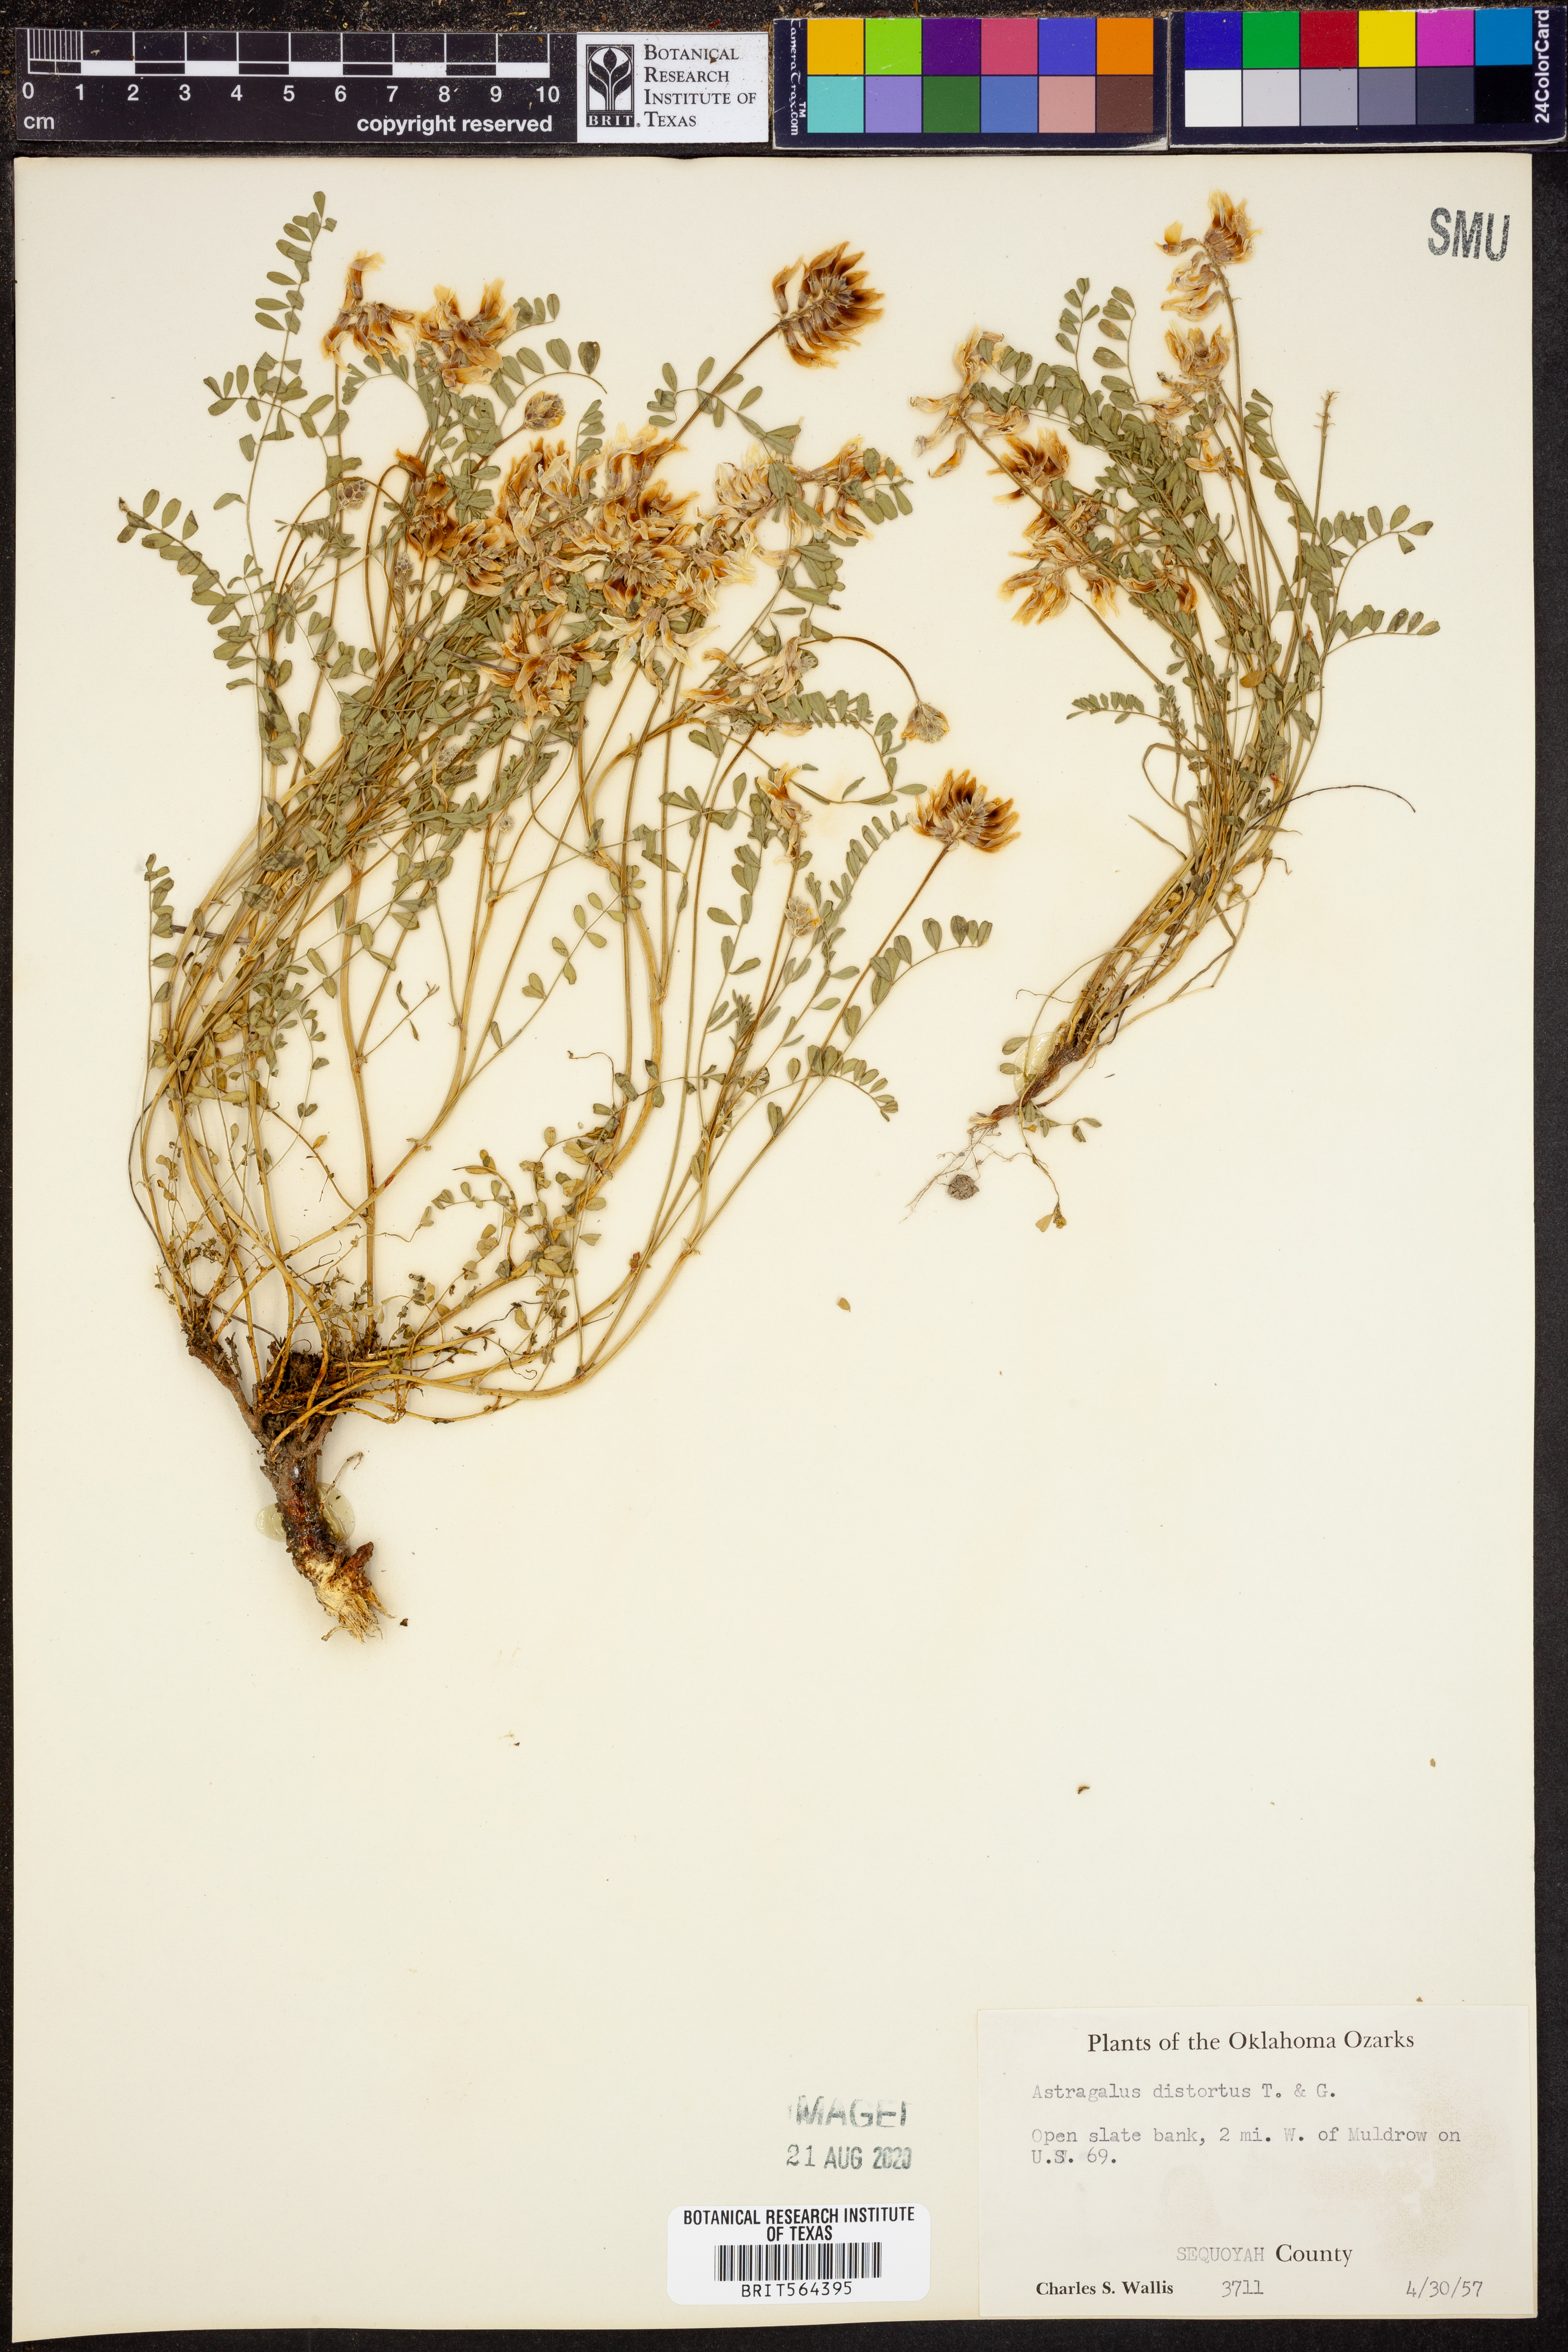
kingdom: Plantae
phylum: Tracheophyta
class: Magnoliopsida
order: Fabales
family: Fabaceae
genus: Astragalus
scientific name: Astragalus distortus
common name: Ozark milk-vetch
